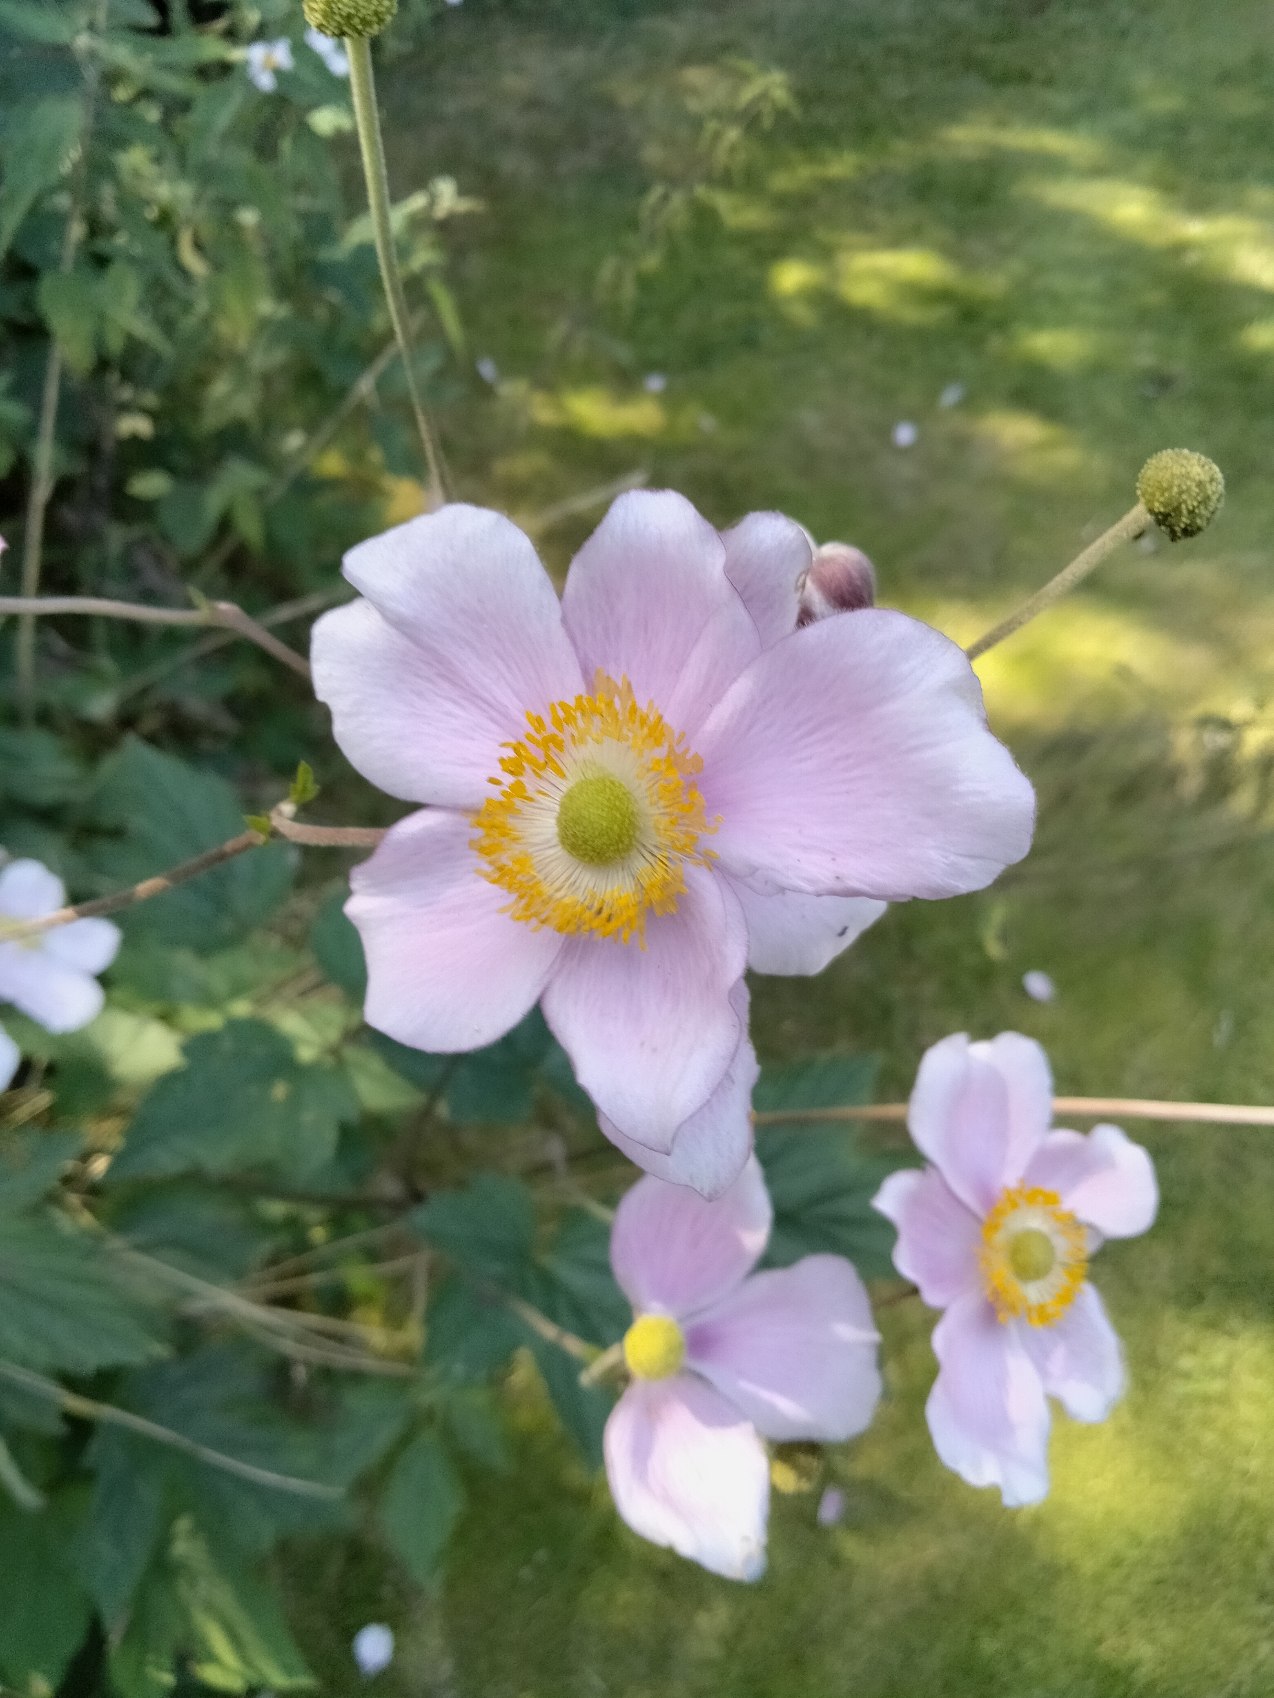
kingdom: Plantae
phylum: Tracheophyta
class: Magnoliopsida
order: Ranunculales
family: Ranunculaceae
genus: Eriocapitella
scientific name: Eriocapitella hupehensis
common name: Høst-anemone
